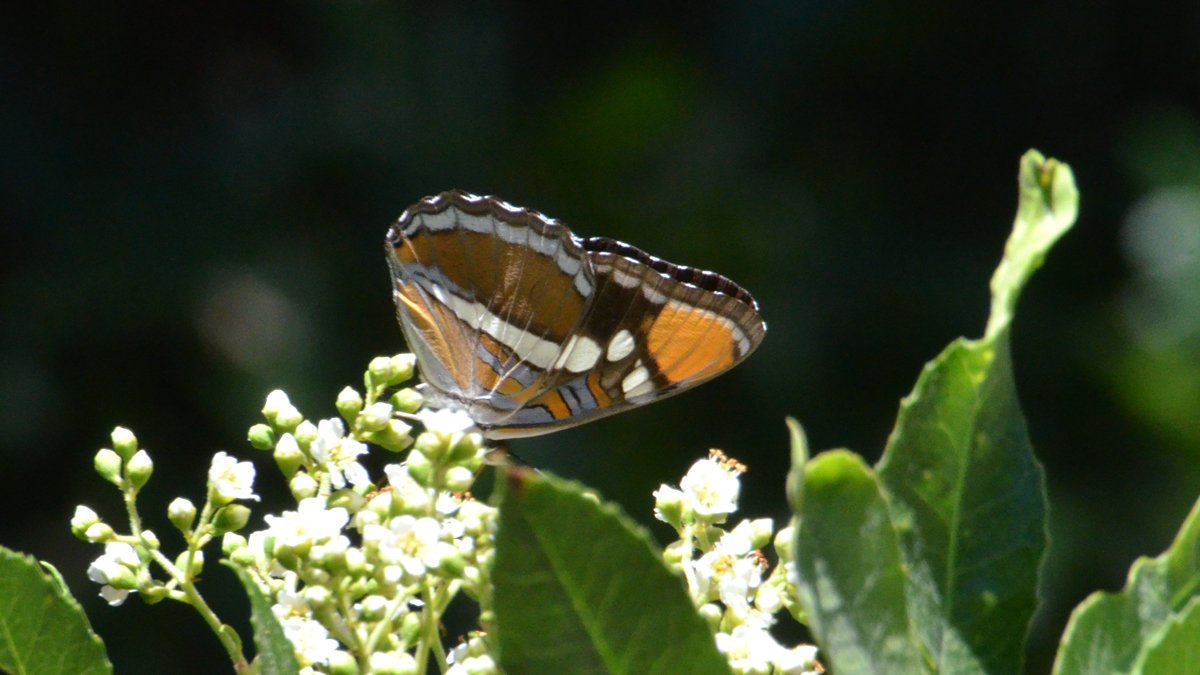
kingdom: Animalia
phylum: Arthropoda
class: Insecta
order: Lepidoptera
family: Nymphalidae
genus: Limenitis
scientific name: Limenitis bredowii
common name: California Sister
